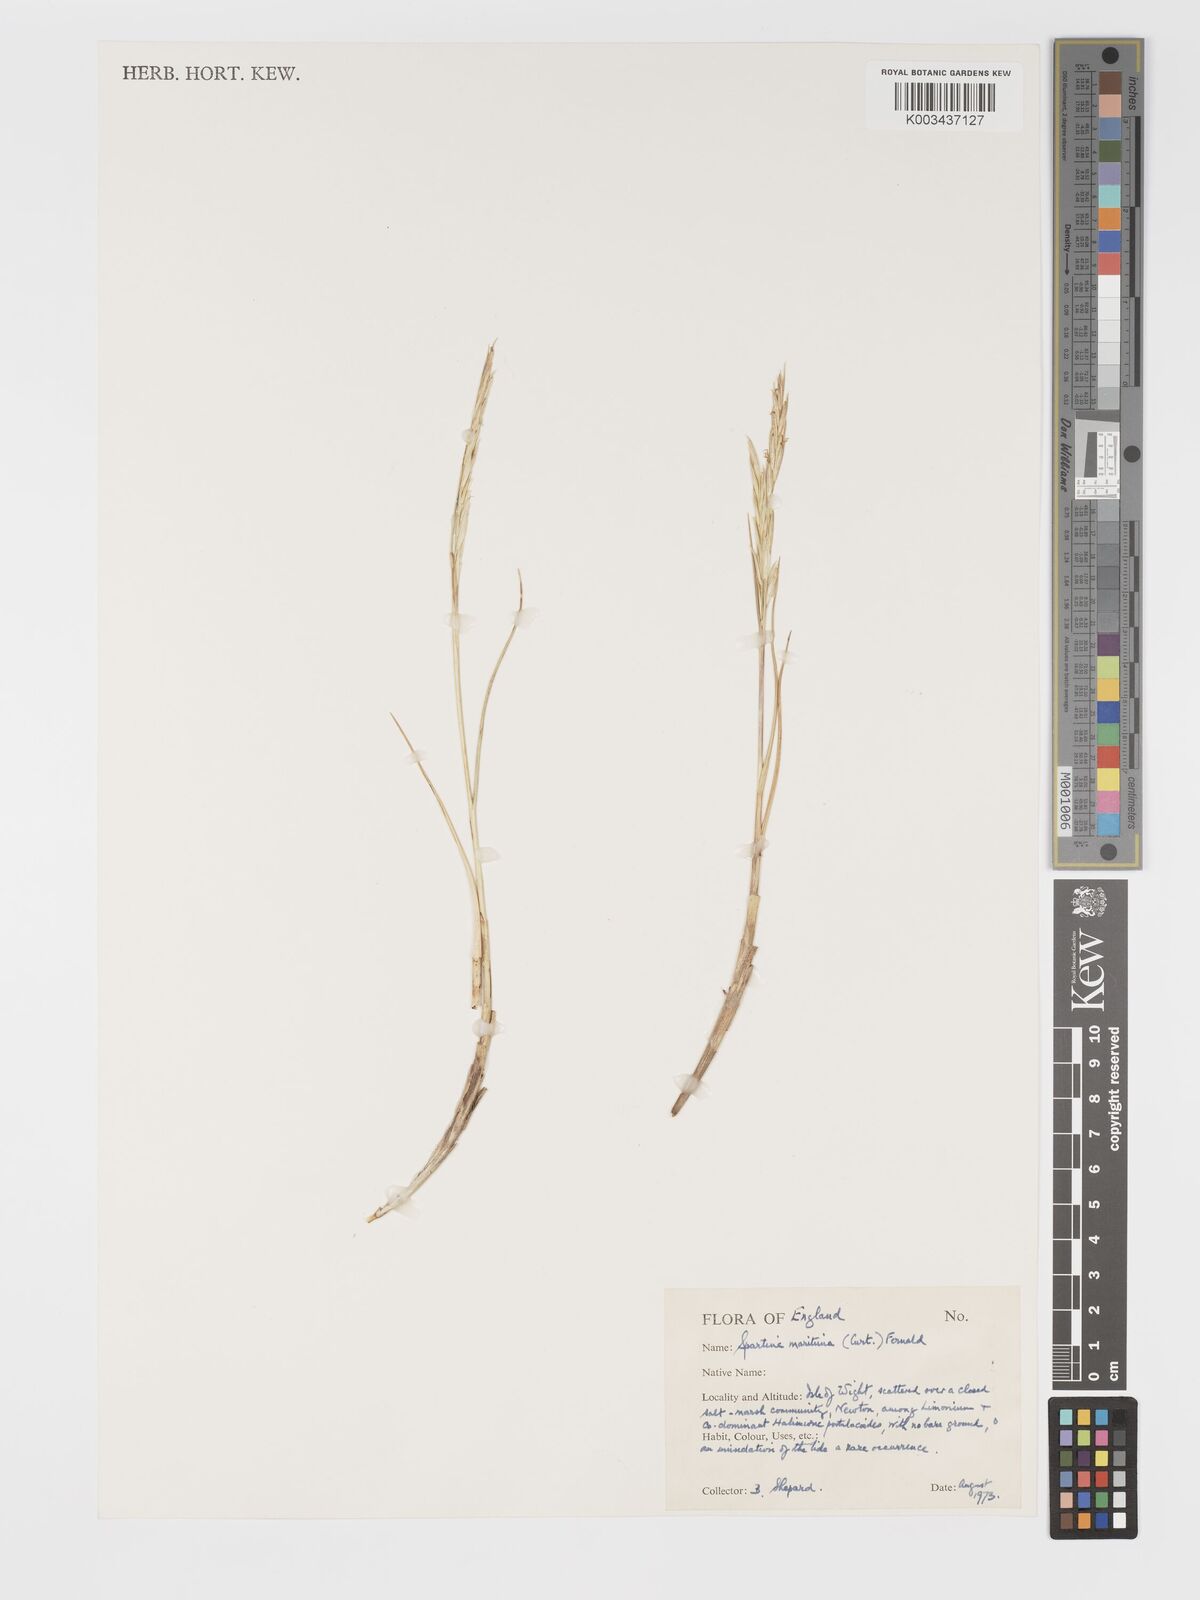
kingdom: Plantae
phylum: Tracheophyta
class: Liliopsida
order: Poales
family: Poaceae
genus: Sporobolus
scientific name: Sporobolus maritimus
